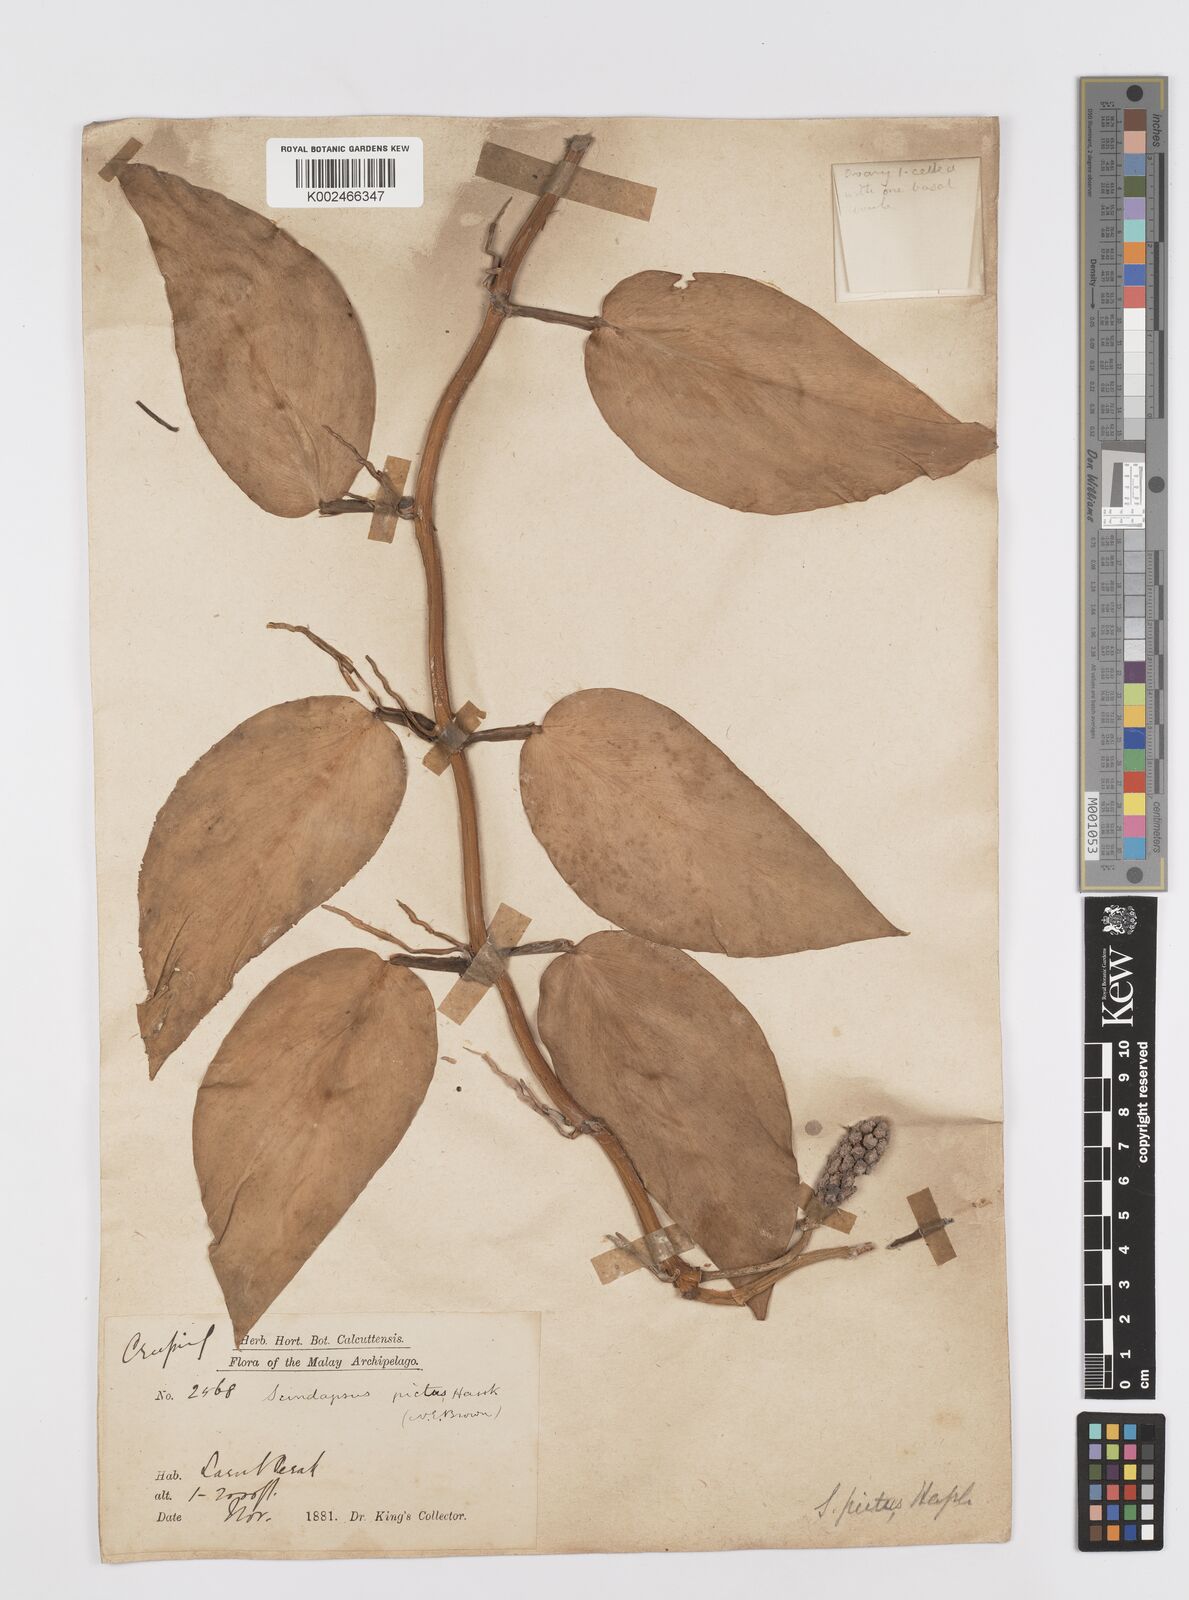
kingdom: Plantae
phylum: Tracheophyta
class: Liliopsida
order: Alismatales
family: Araceae
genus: Scindapsus
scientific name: Scindapsus pictus
